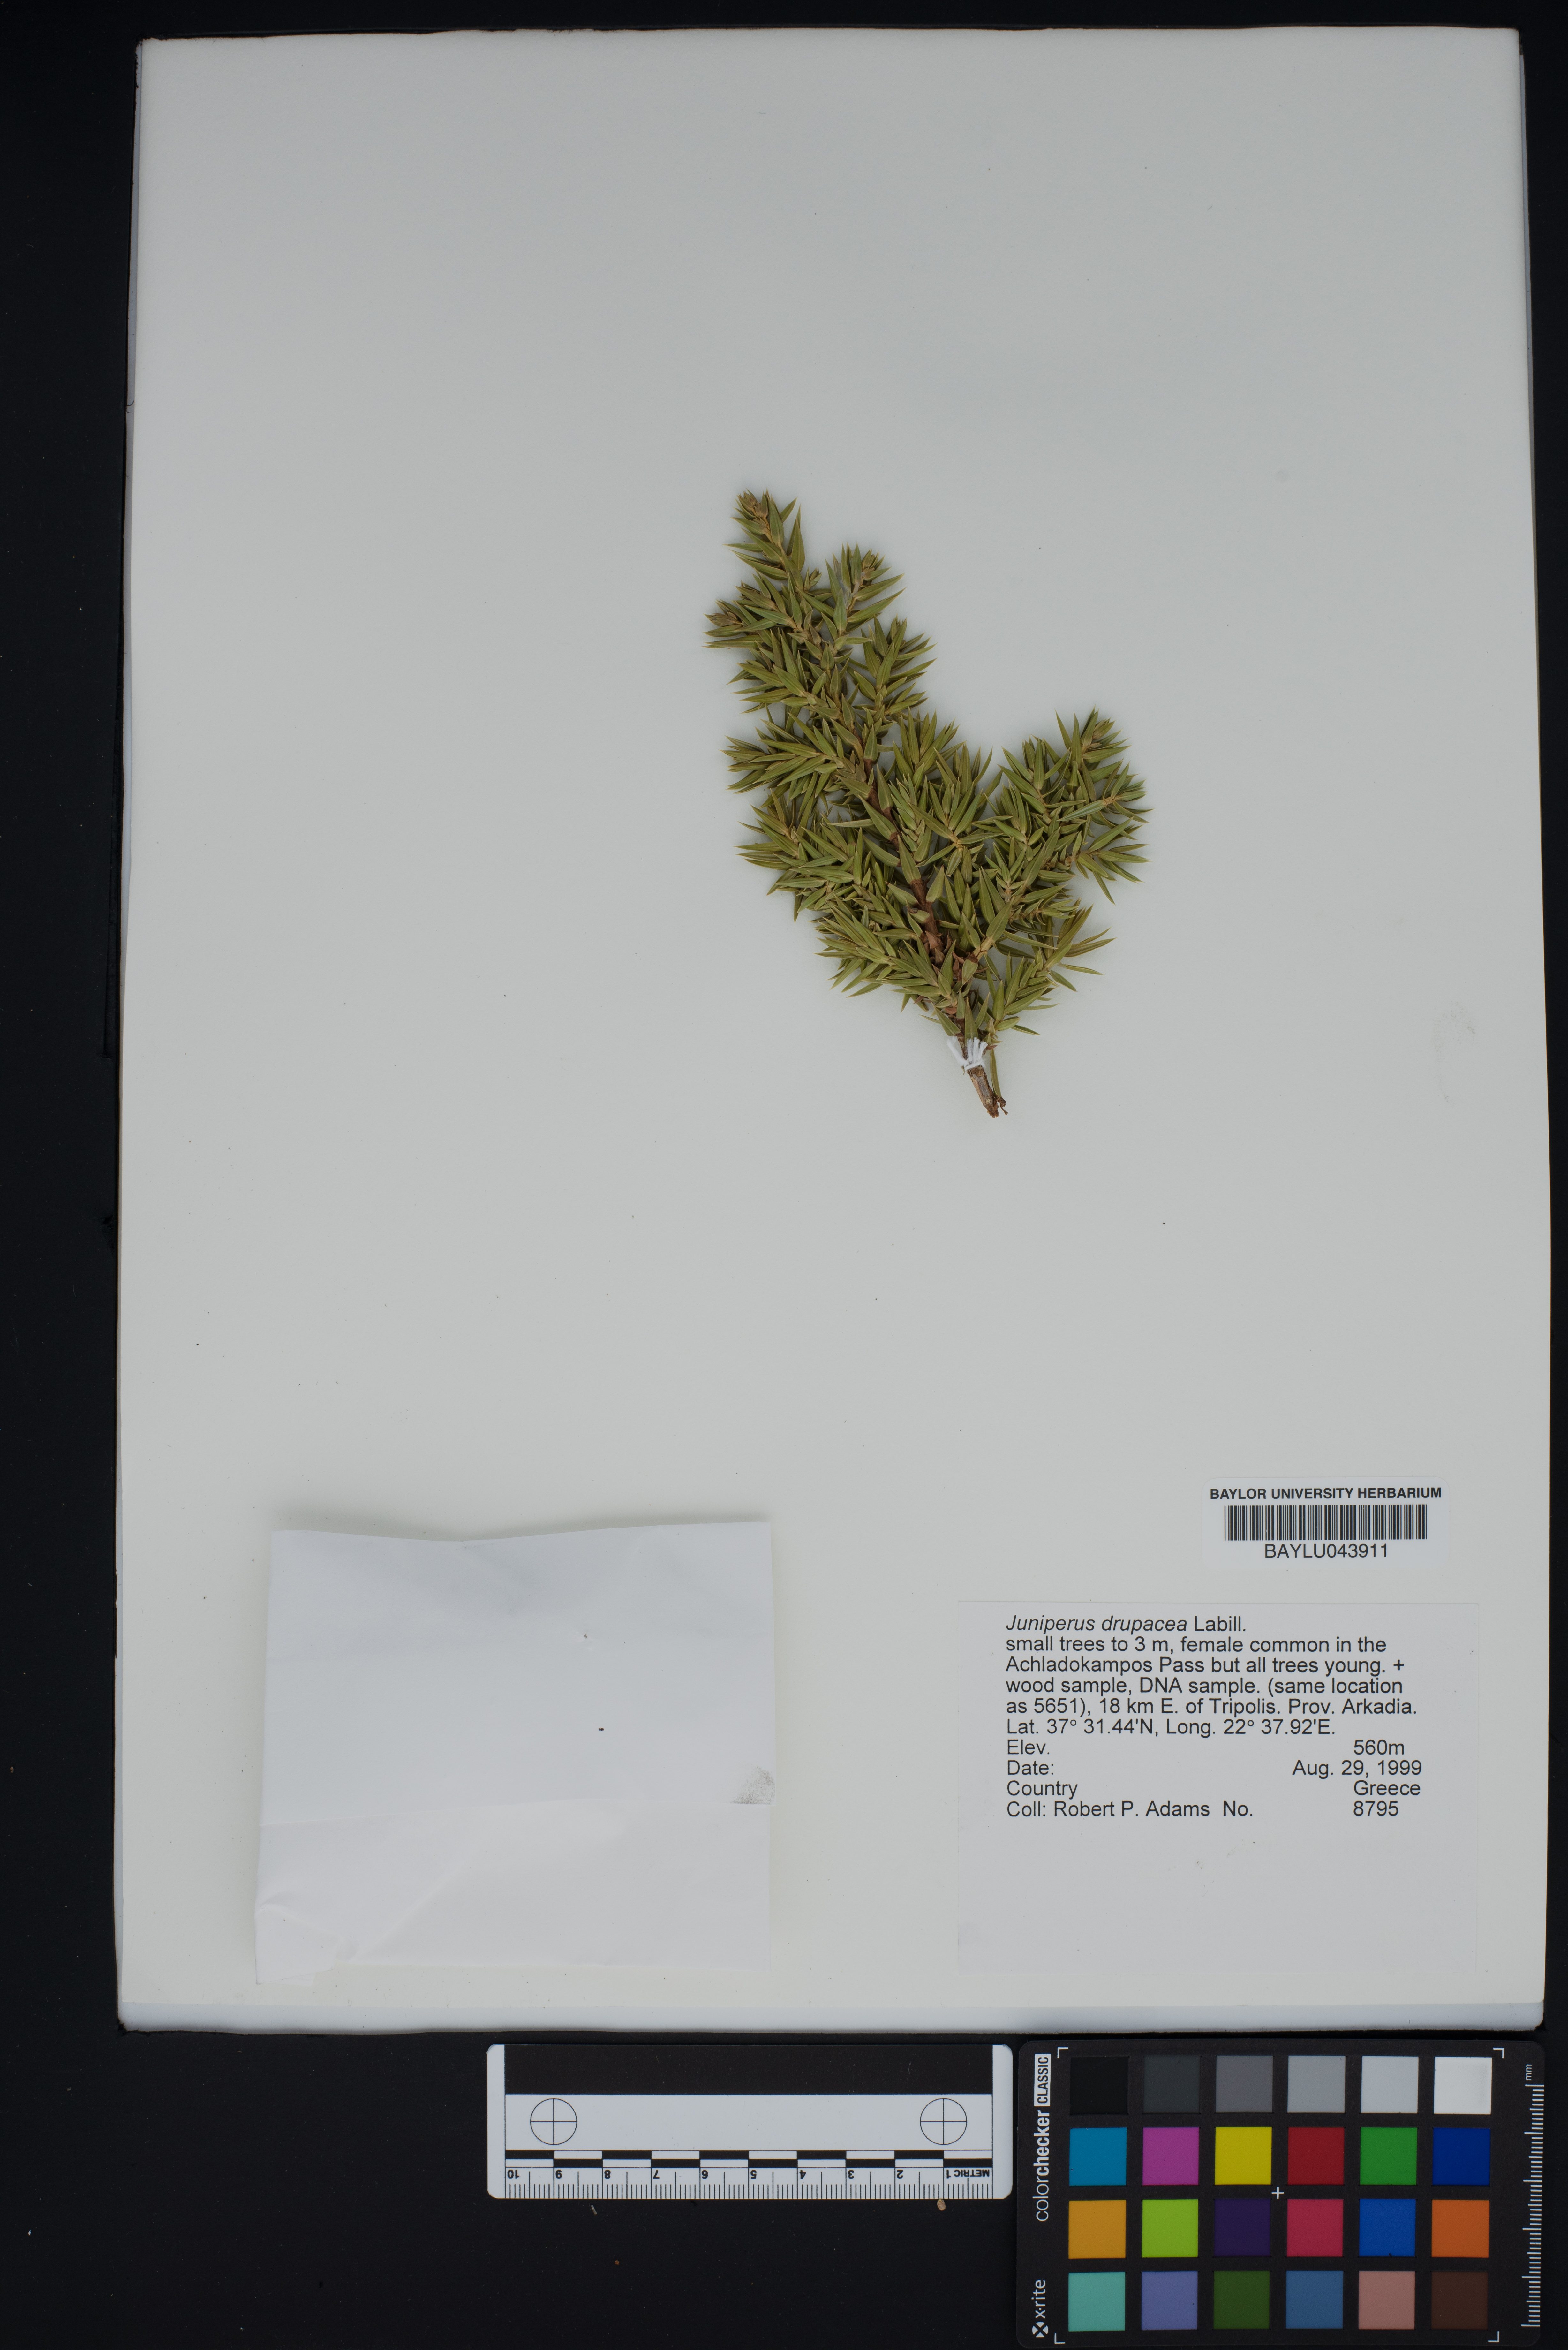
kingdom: Plantae
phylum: Tracheophyta
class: Pinopsida
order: Pinales
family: Cupressaceae
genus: Juniperus
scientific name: Juniperus drupacea
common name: Syrian juniper
